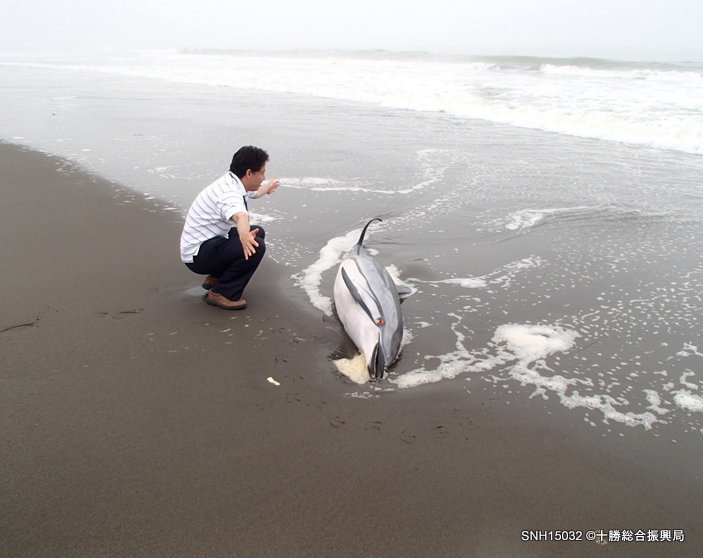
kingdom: Animalia
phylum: Chordata
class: Mammalia
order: Cetacea
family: Delphinidae
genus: Stenella
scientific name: Stenella coeruleoalba
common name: Striped dolphin
